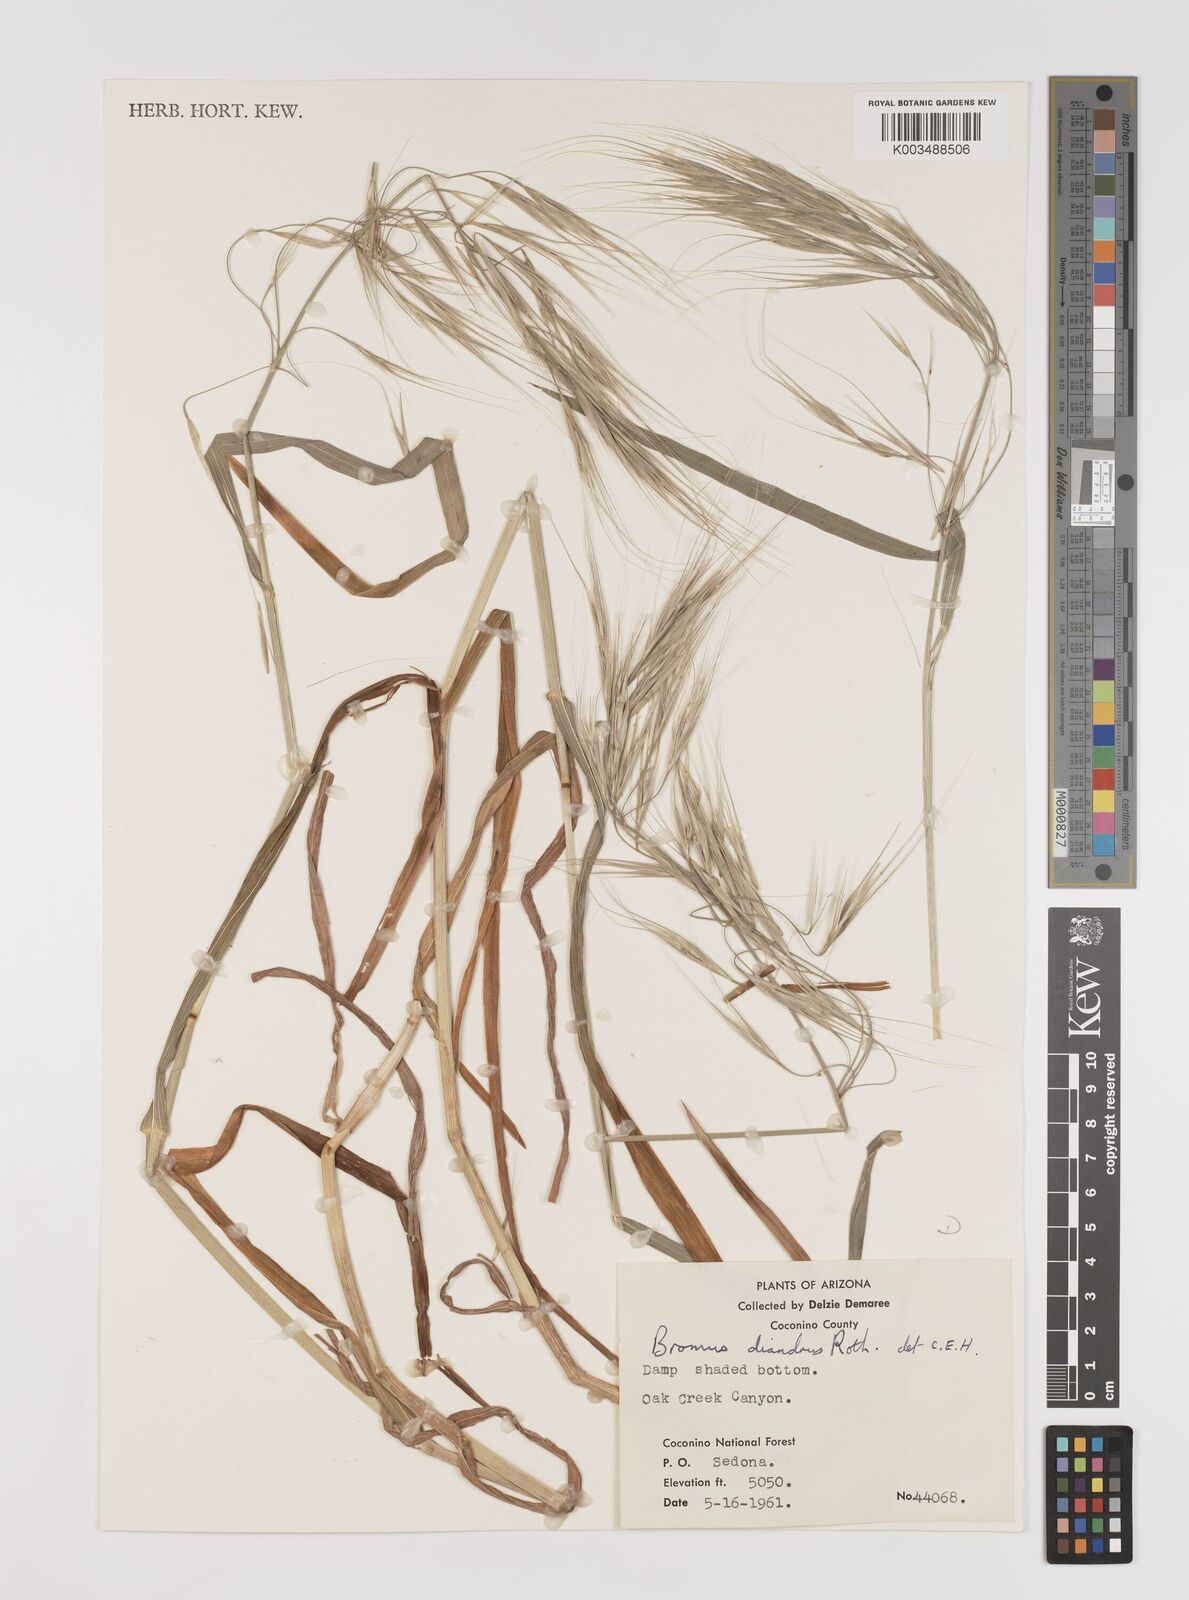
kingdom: Plantae
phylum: Tracheophyta
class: Liliopsida
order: Poales
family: Poaceae
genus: Bromus
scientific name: Bromus diandrus
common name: Ripgut brome
